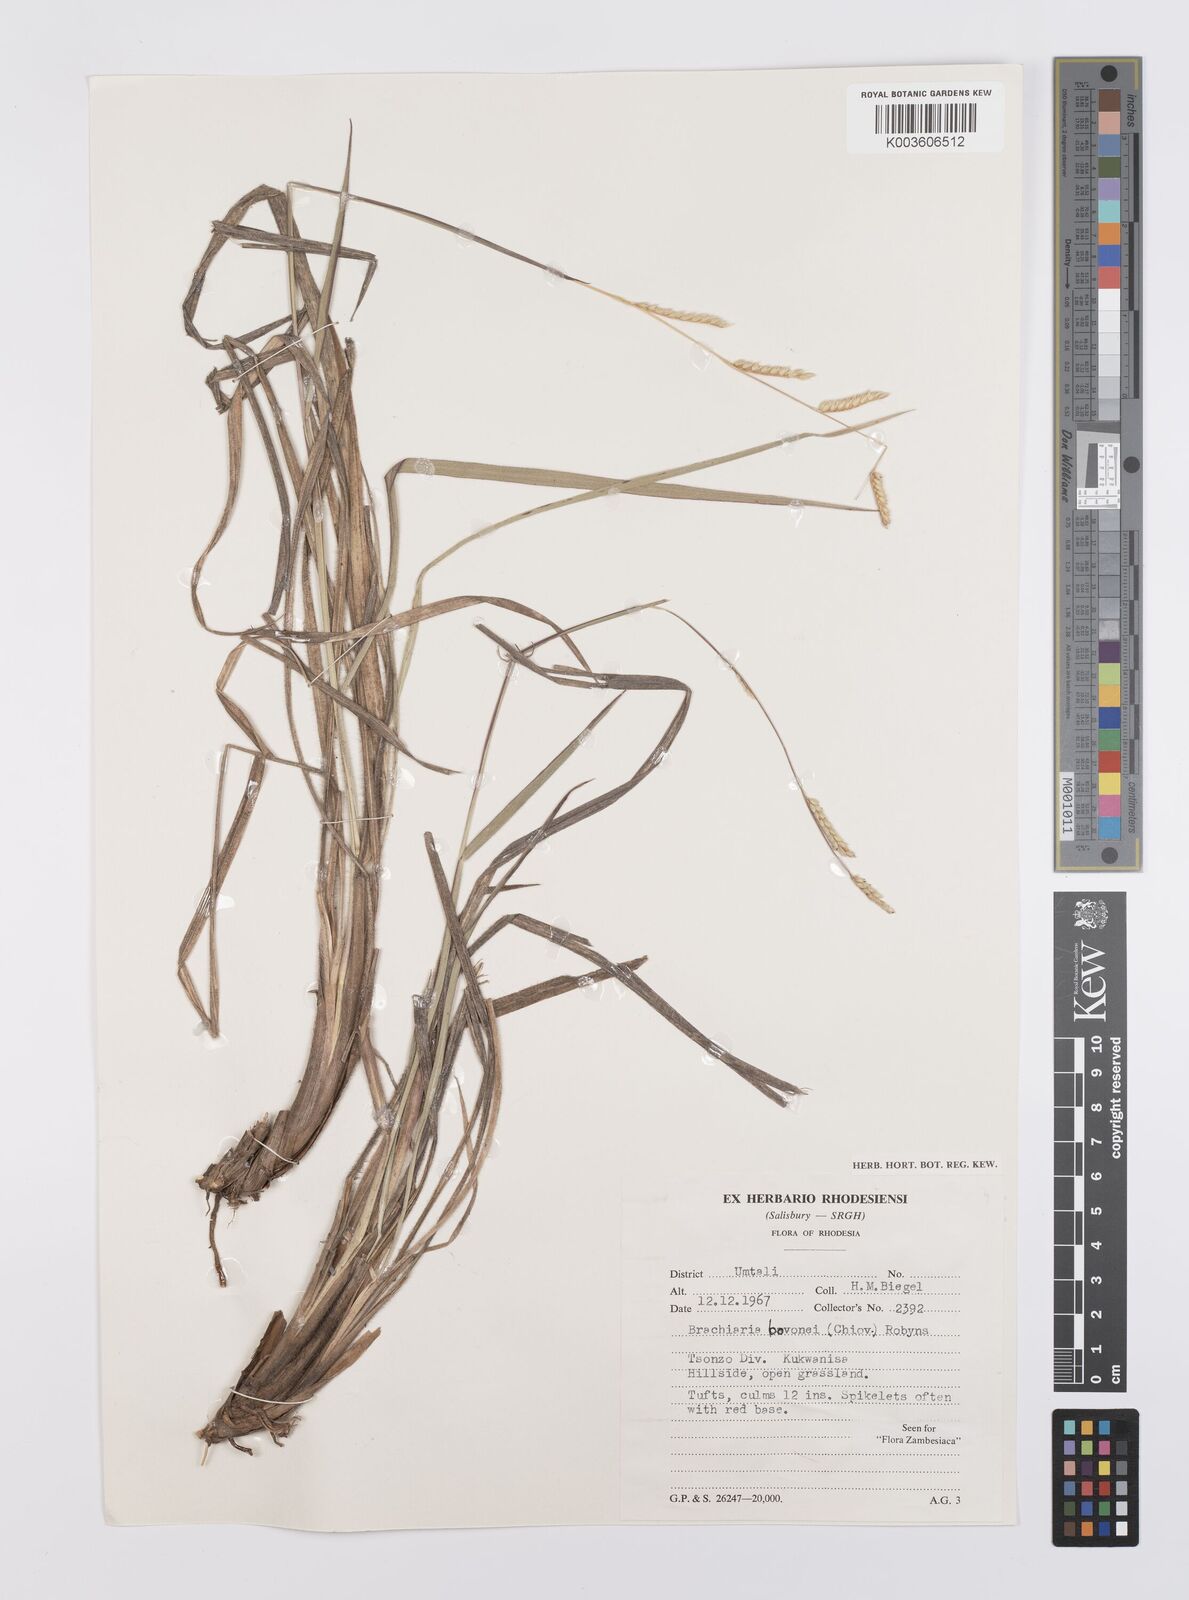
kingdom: Plantae
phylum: Tracheophyta
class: Liliopsida
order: Poales
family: Poaceae
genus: Urochloa
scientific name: Urochloa bovonei
